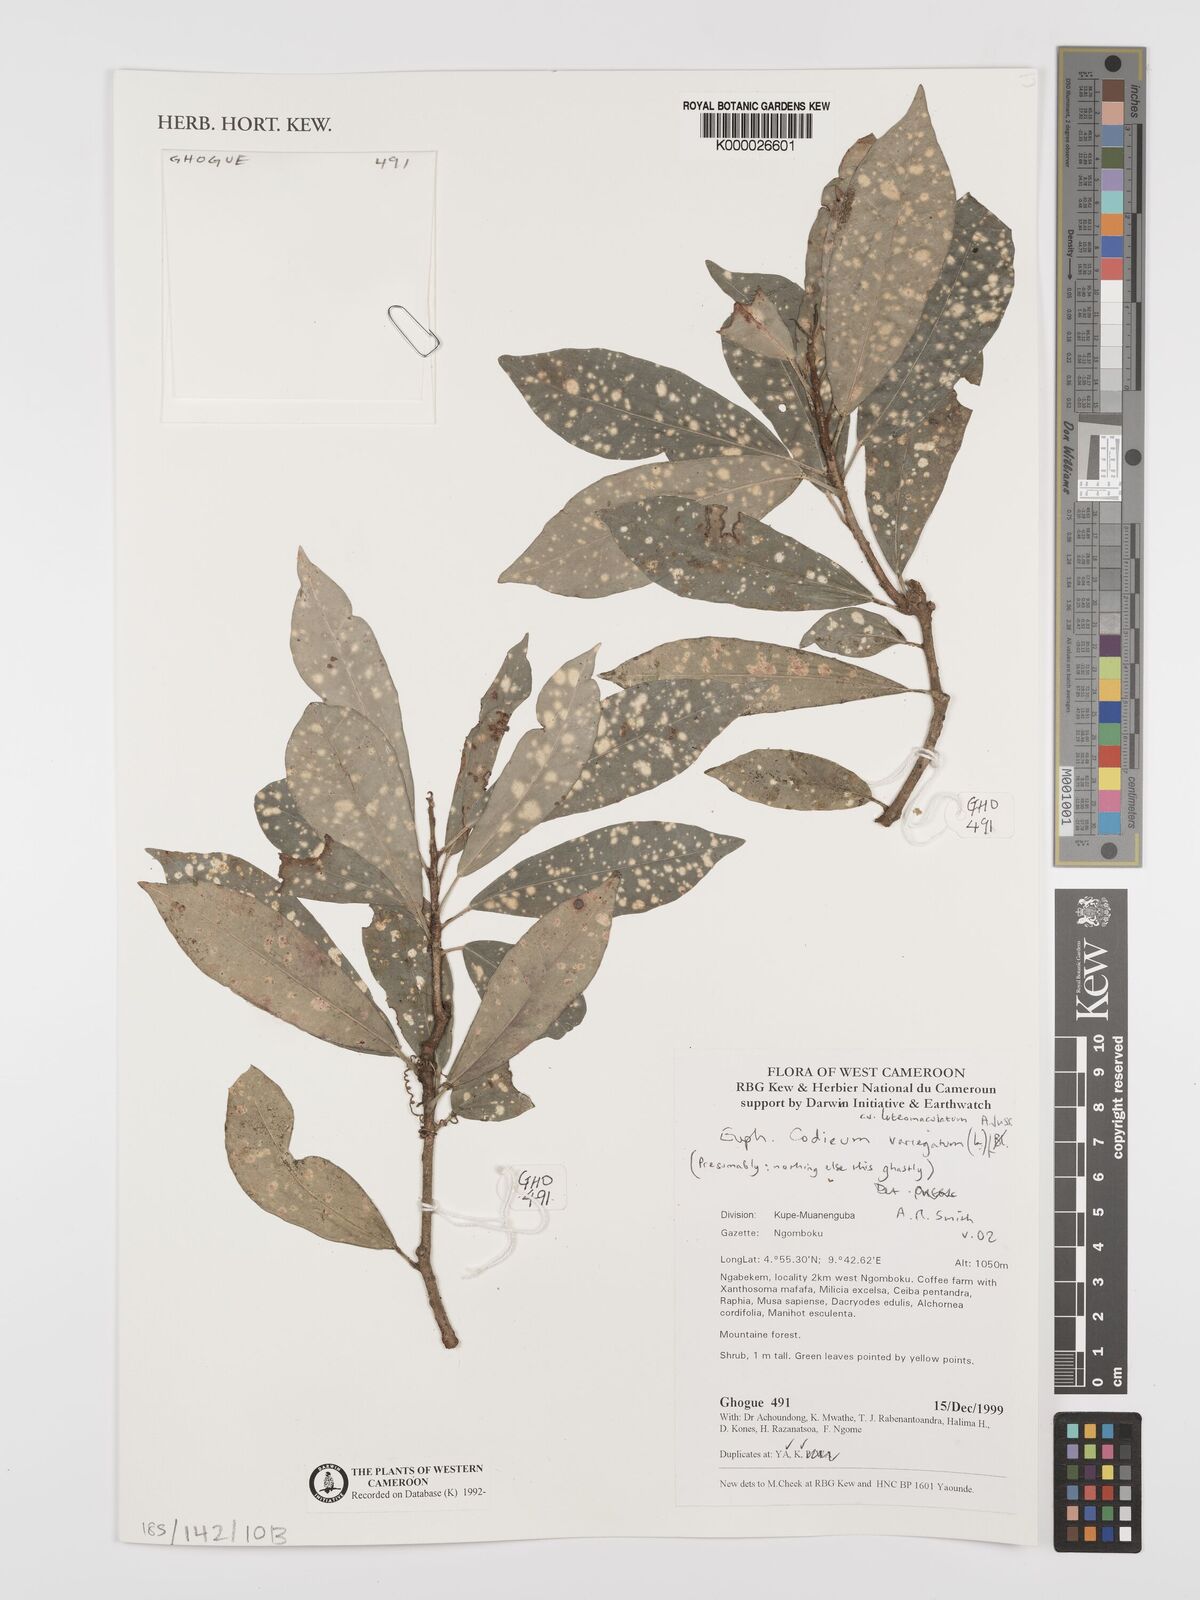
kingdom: Plantae
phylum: Tracheophyta
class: Magnoliopsida
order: Malpighiales
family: Euphorbiaceae
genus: Codiaeum
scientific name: Codiaeum variegatum
